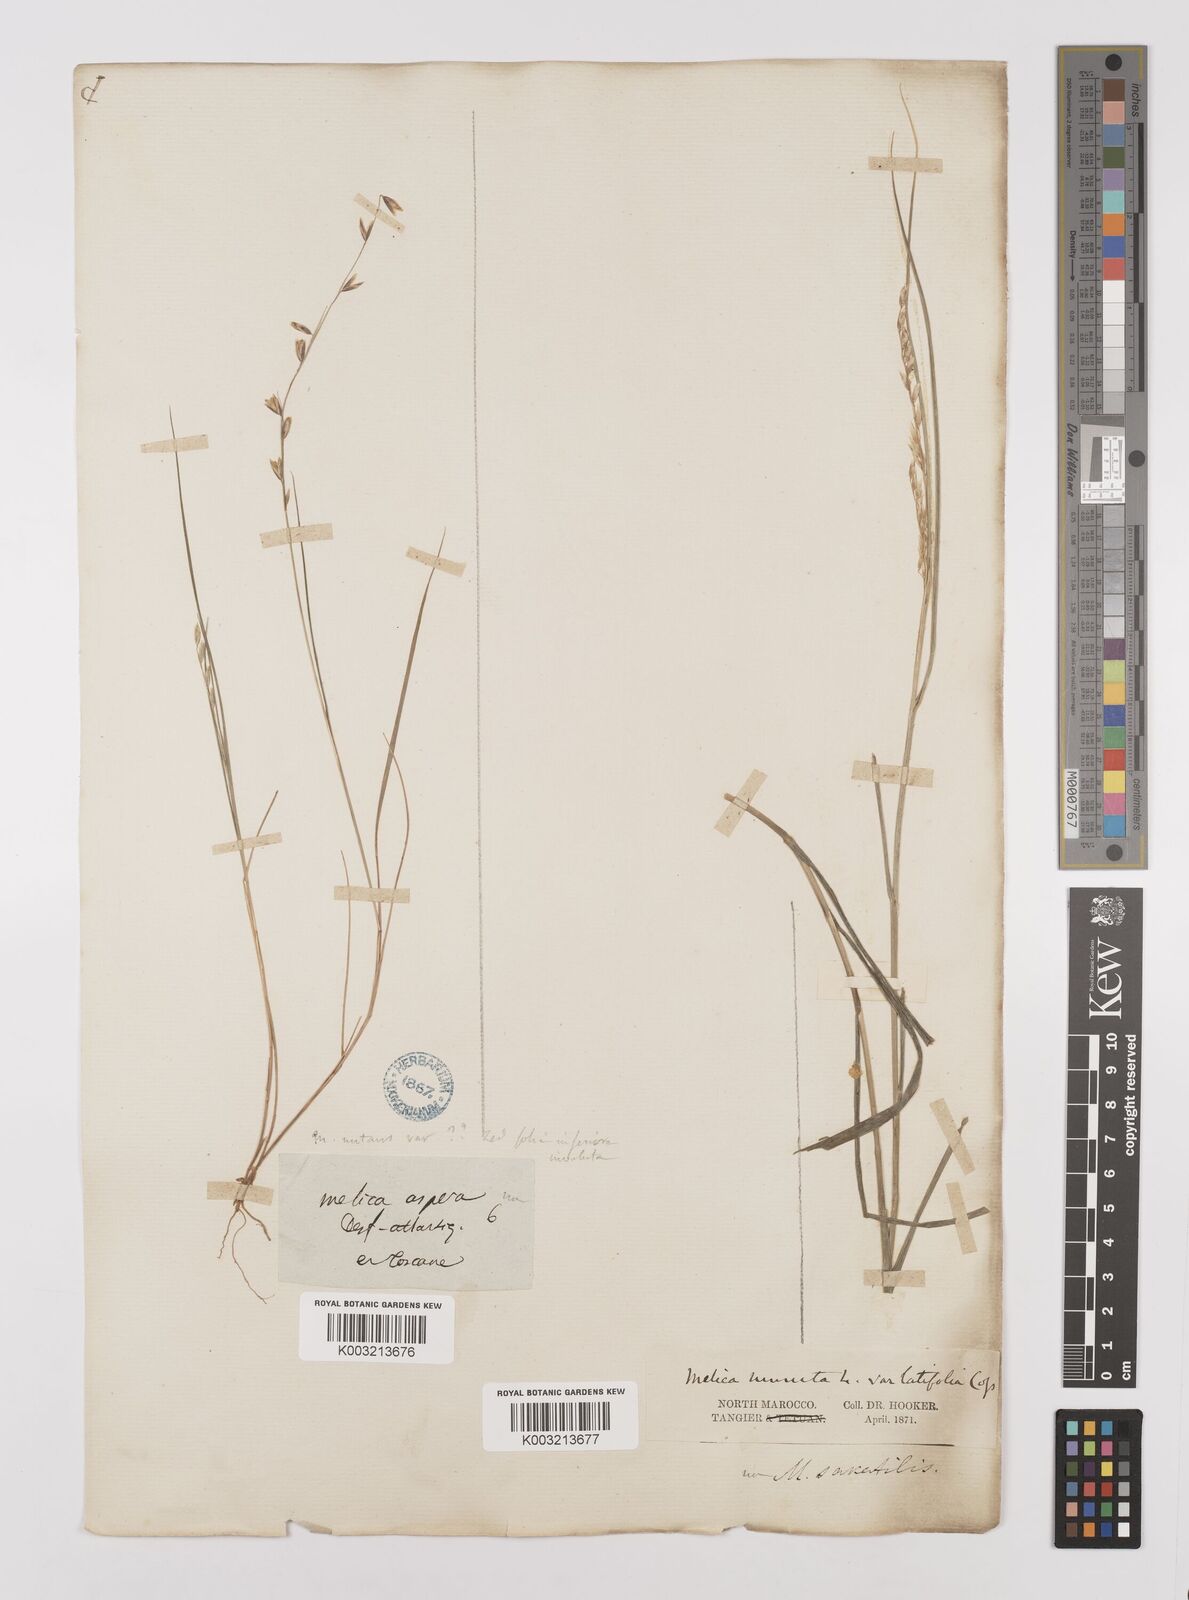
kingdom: Plantae
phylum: Tracheophyta
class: Liliopsida
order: Poales
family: Poaceae
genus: Melica
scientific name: Melica minuta
